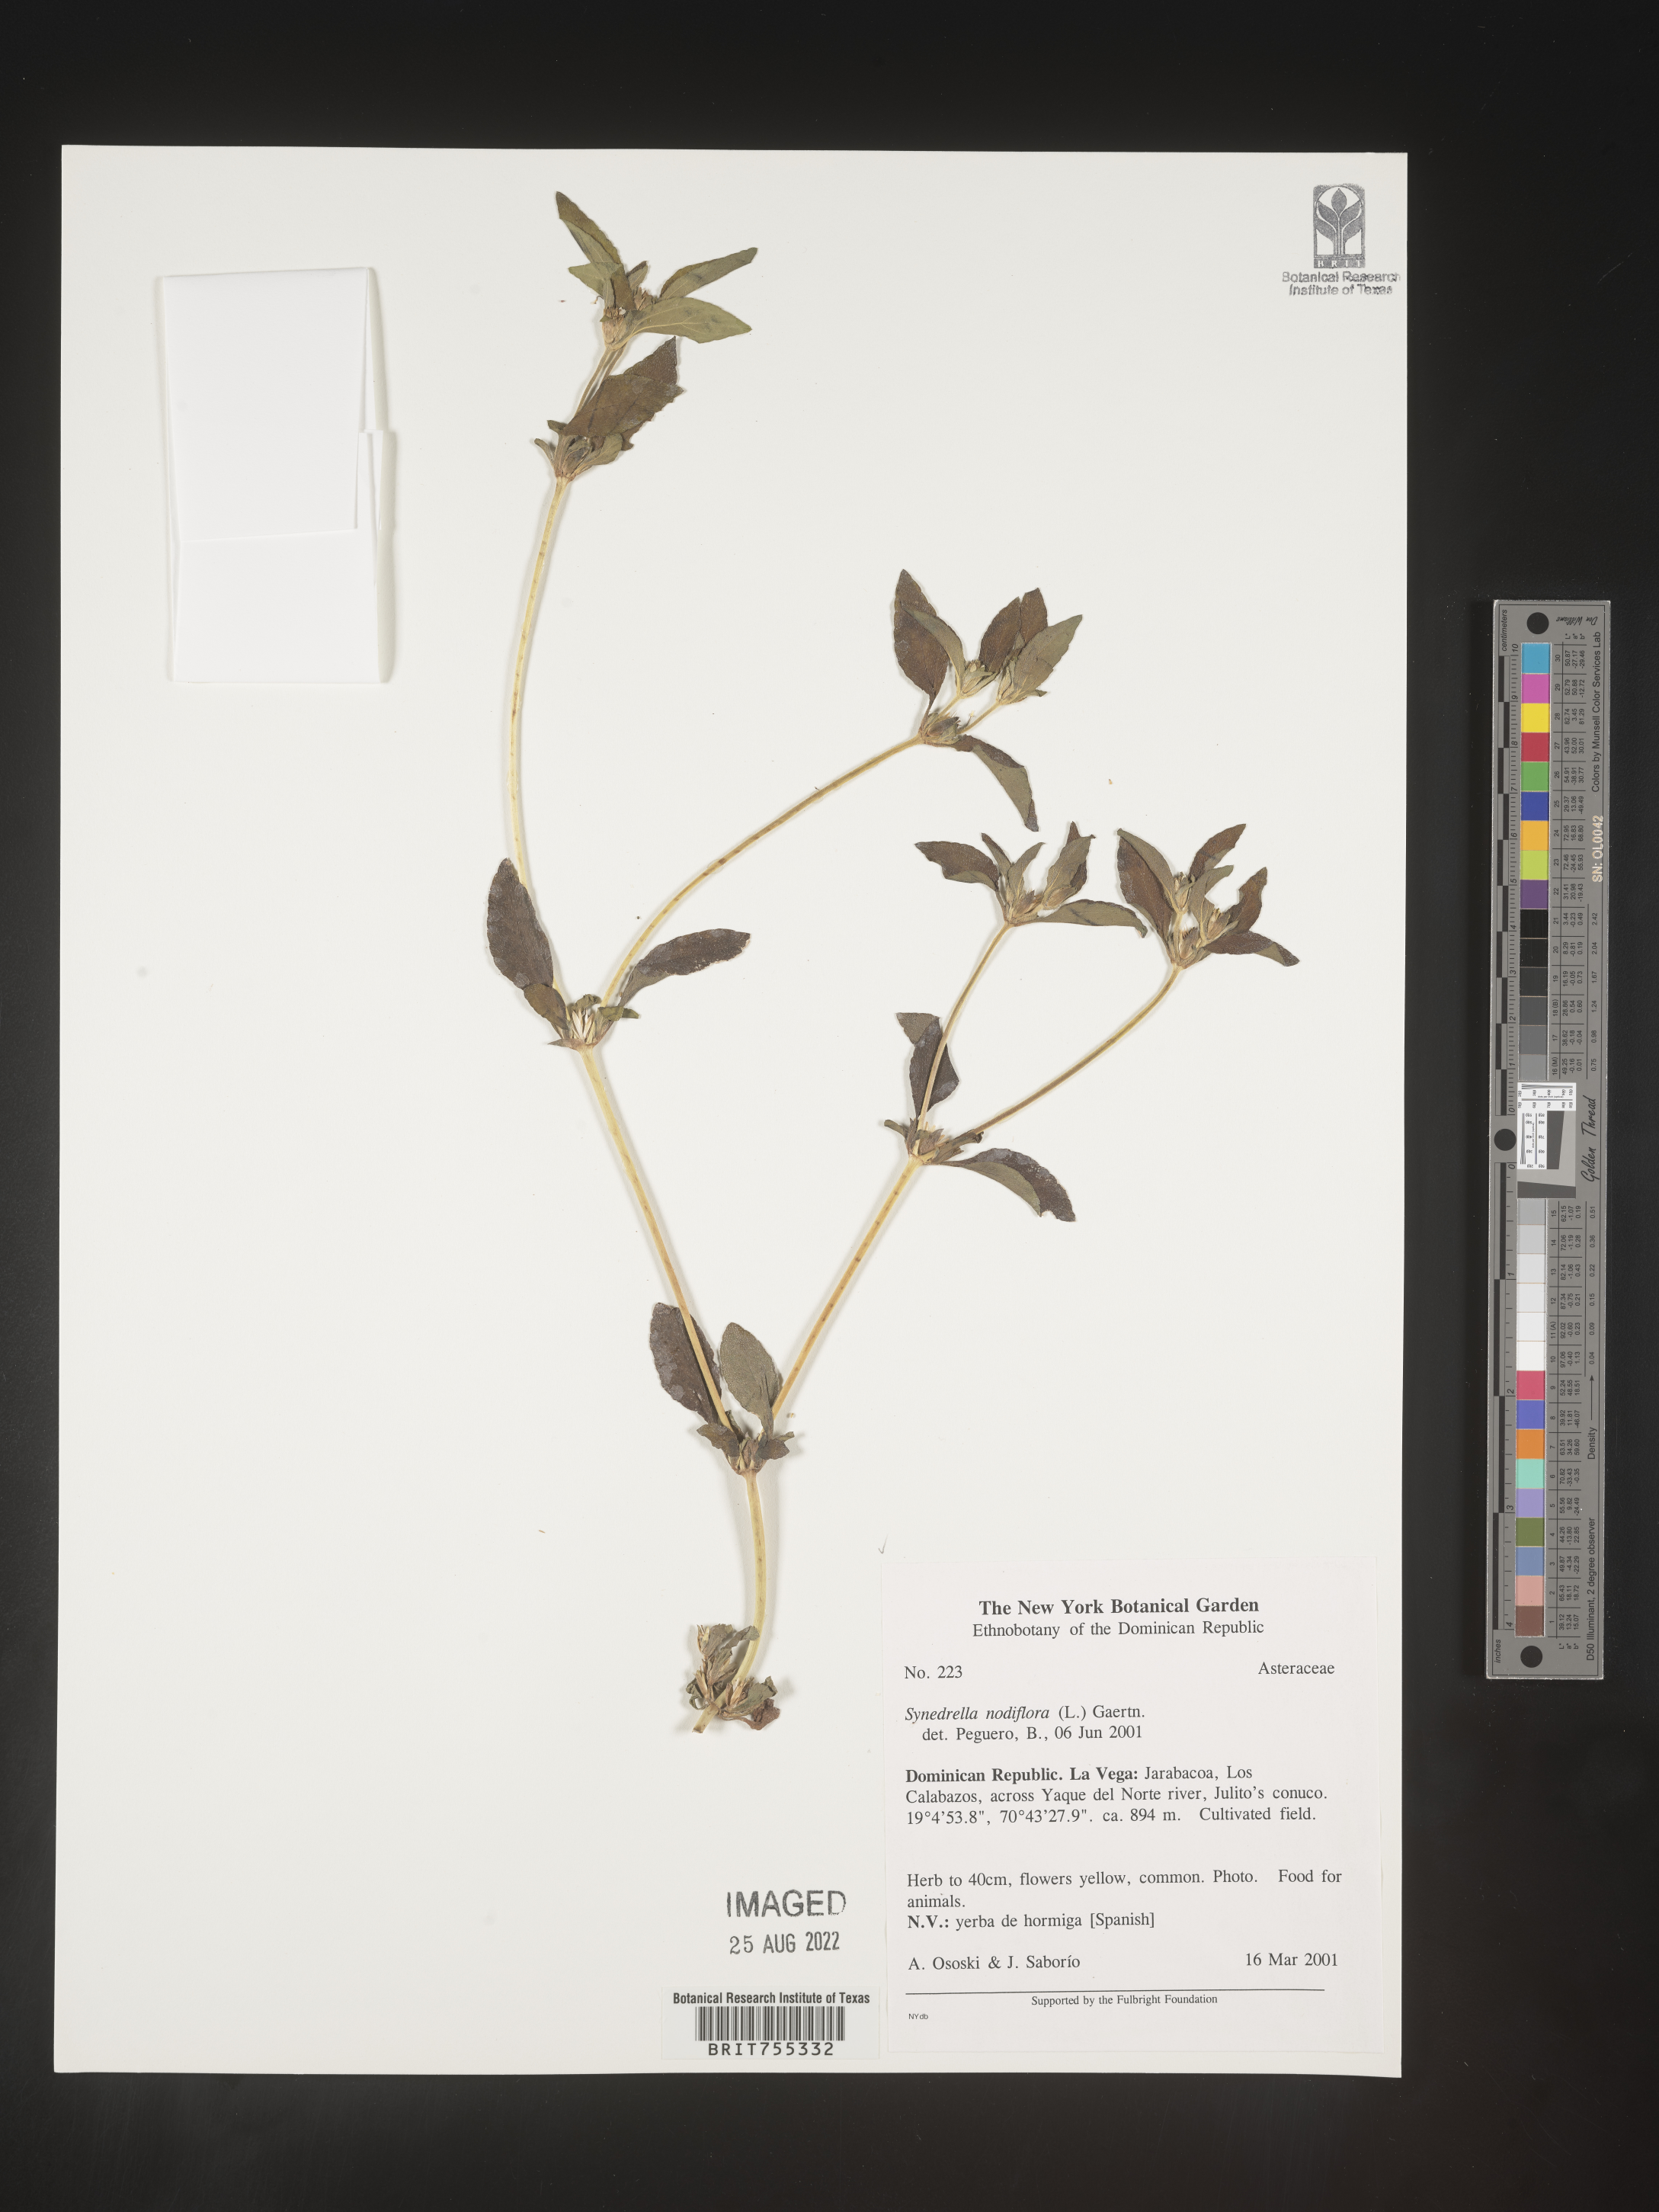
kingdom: Plantae
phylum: Tracheophyta
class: Magnoliopsida
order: Asterales
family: Asteraceae
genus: Synedrella
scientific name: Synedrella
